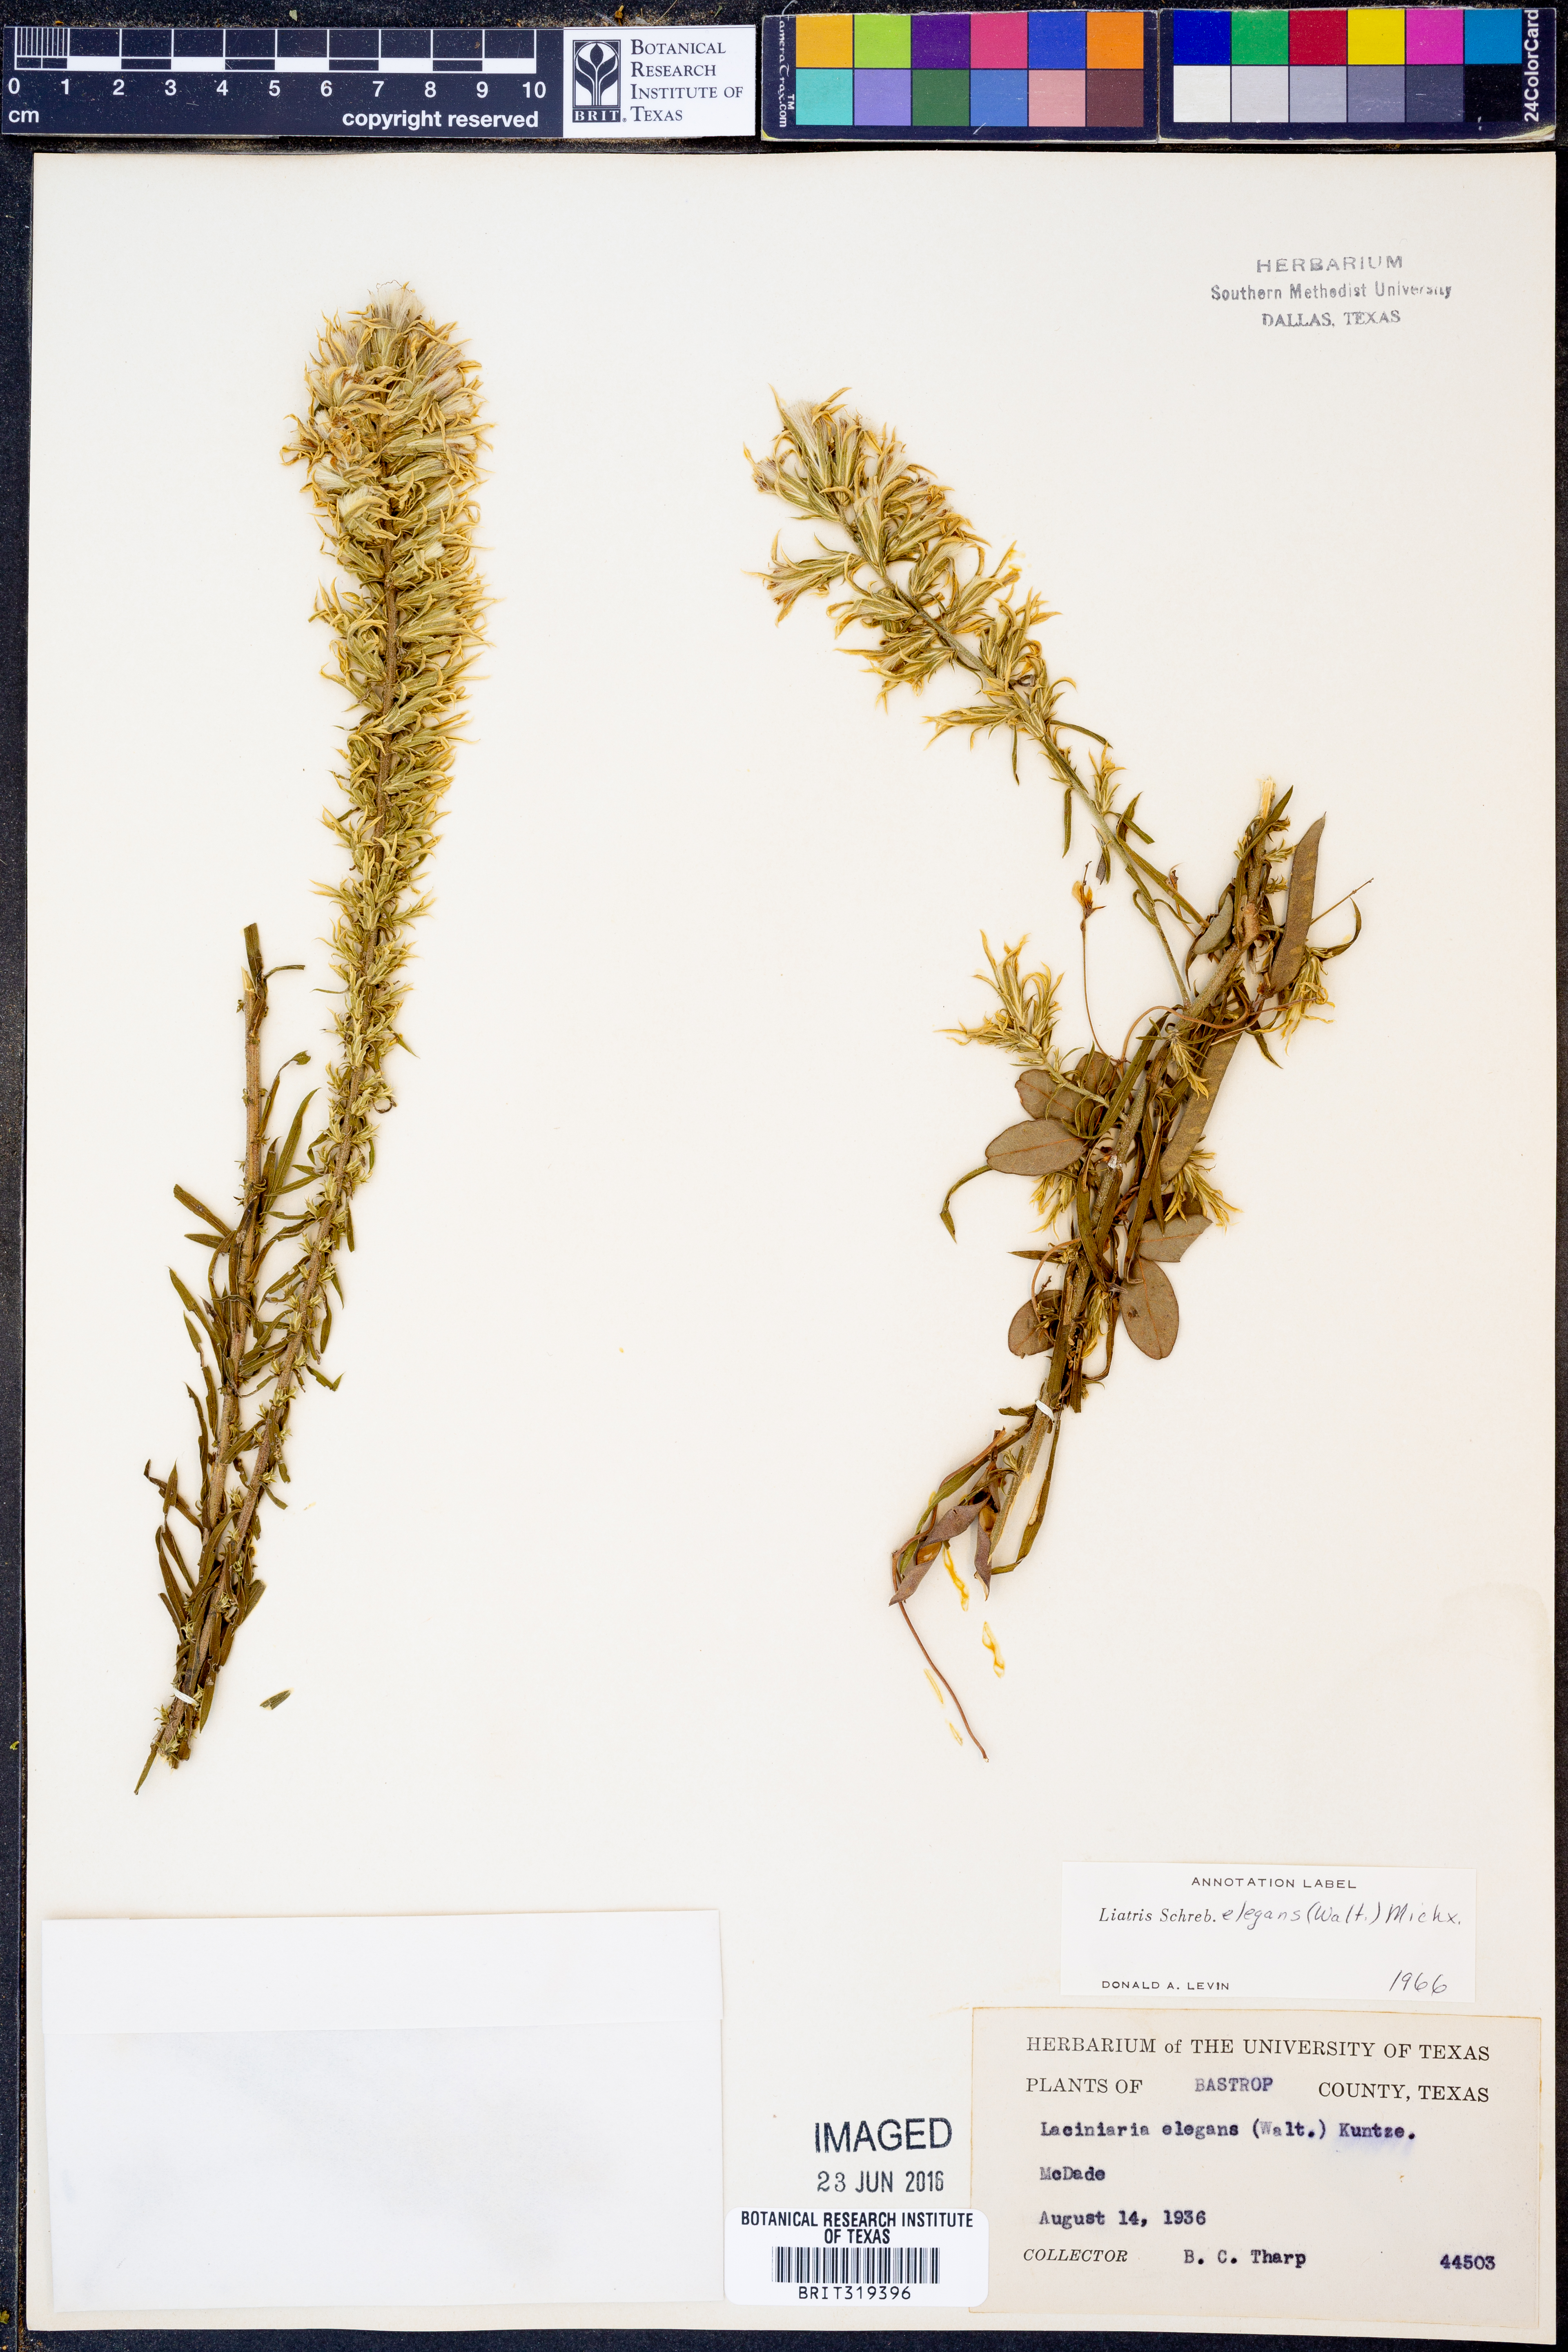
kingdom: Plantae
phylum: Tracheophyta
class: Magnoliopsida
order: Asterales
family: Asteraceae
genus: Liatris
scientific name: Liatris elegans
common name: Pinkscale gayfeather
